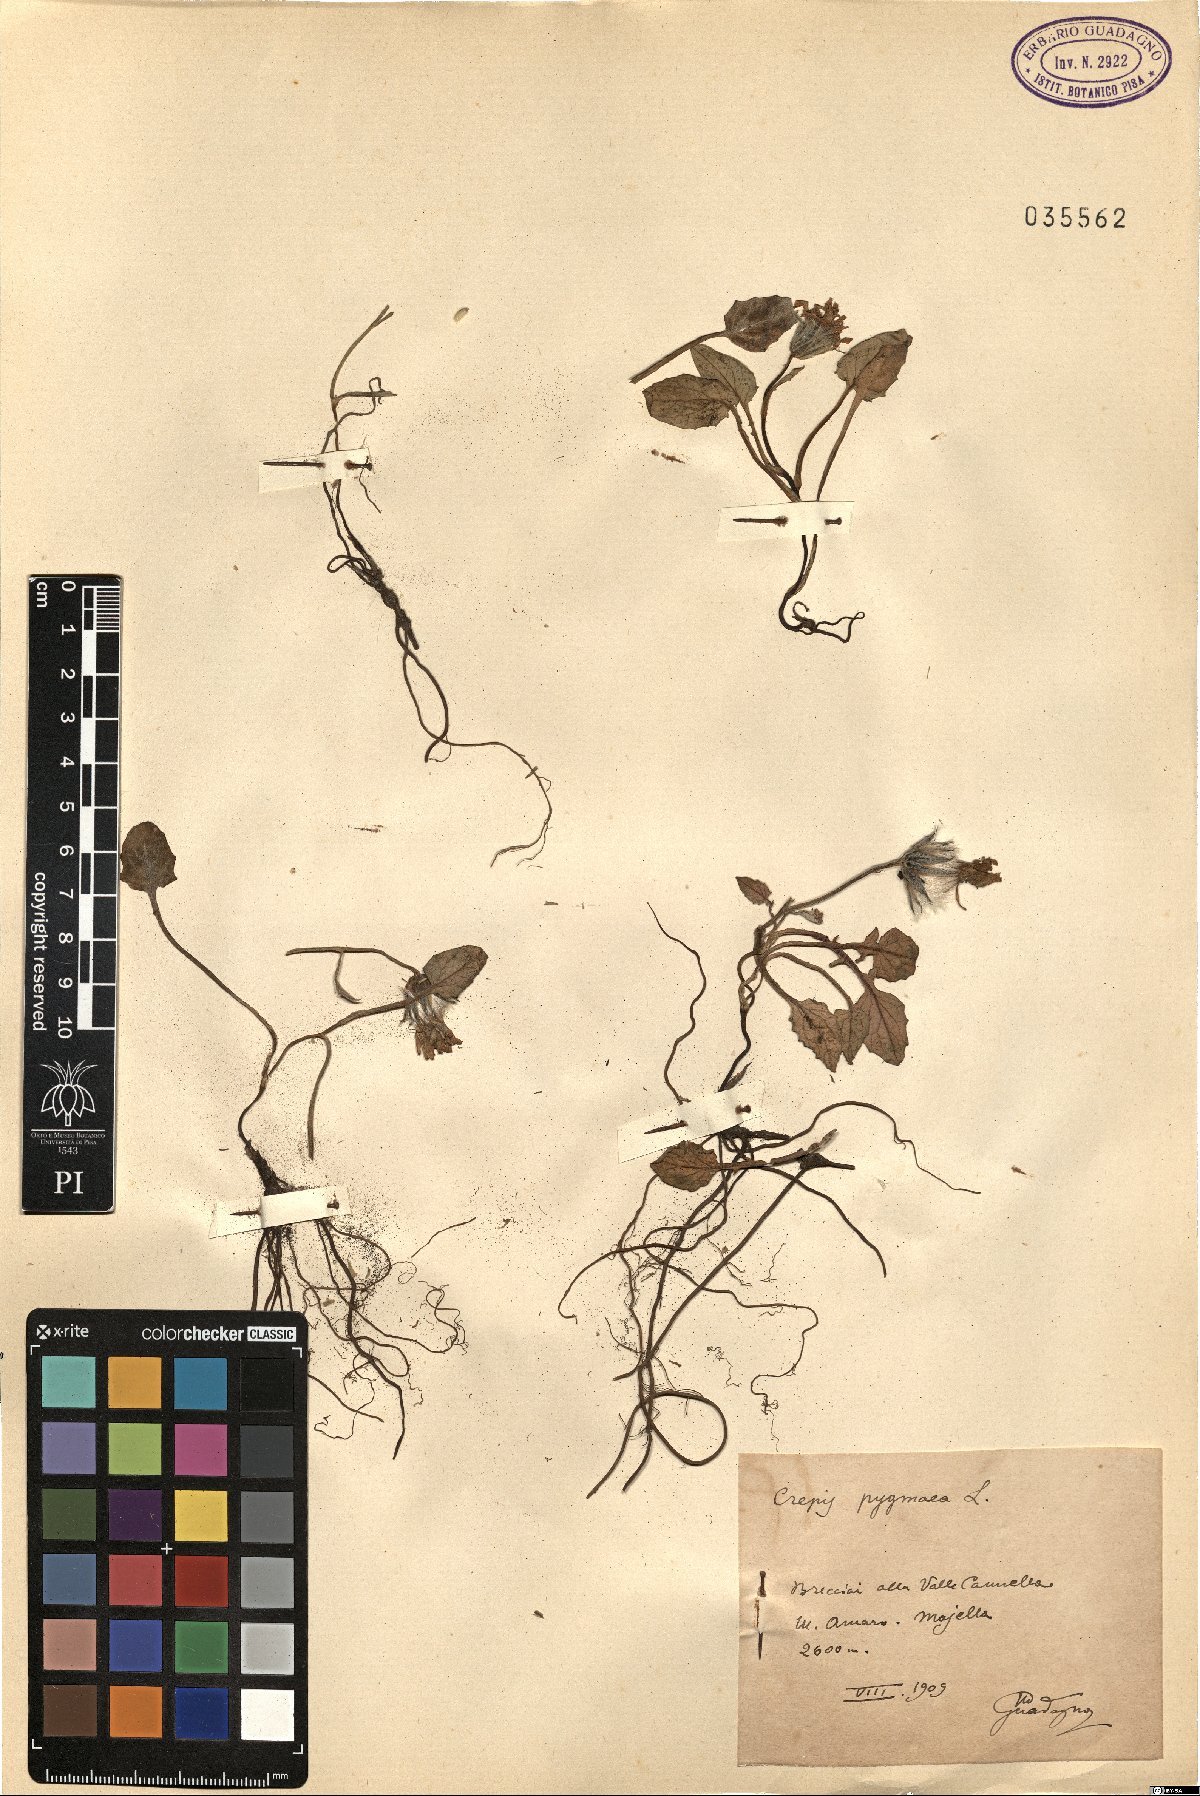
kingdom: Plantae
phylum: Tracheophyta
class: Magnoliopsida
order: Asterales
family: Asteraceae
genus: Crepis
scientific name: Crepis pygmaea
